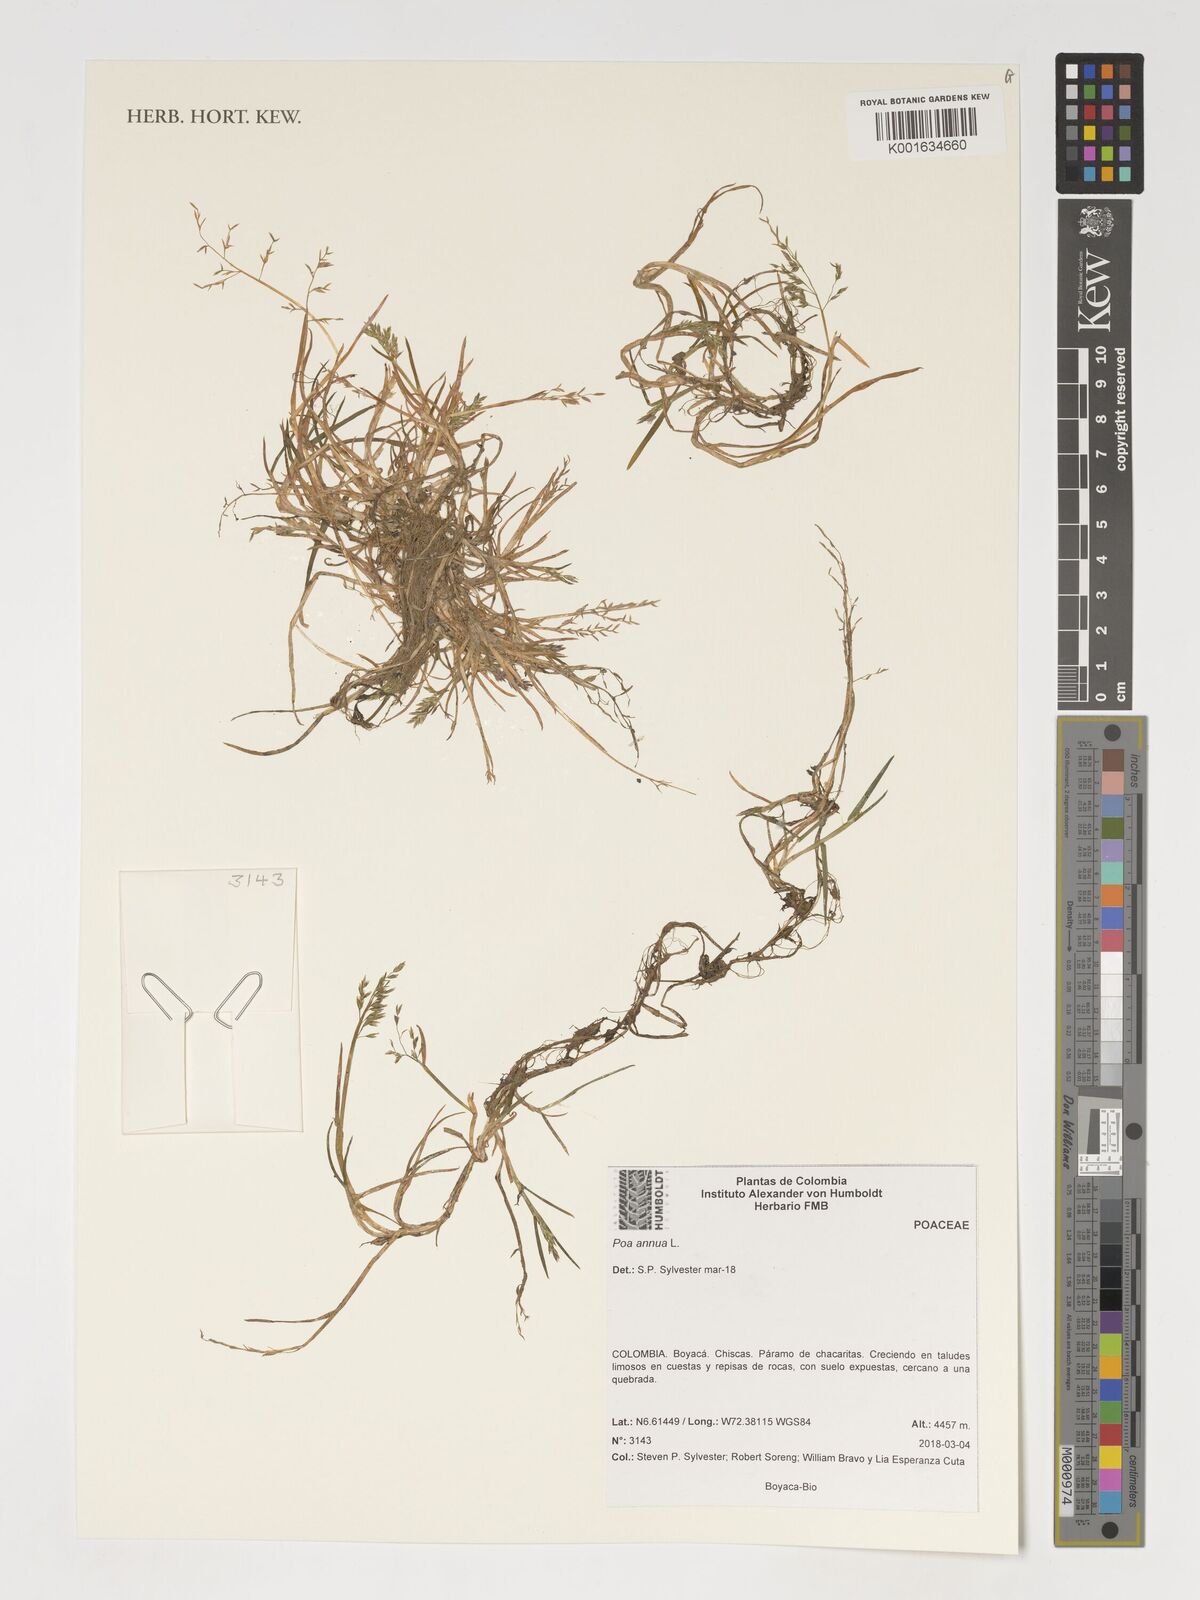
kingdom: Plantae
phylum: Tracheophyta
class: Liliopsida
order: Poales
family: Poaceae
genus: Poa
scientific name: Poa annua
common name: Annual bluegrass
